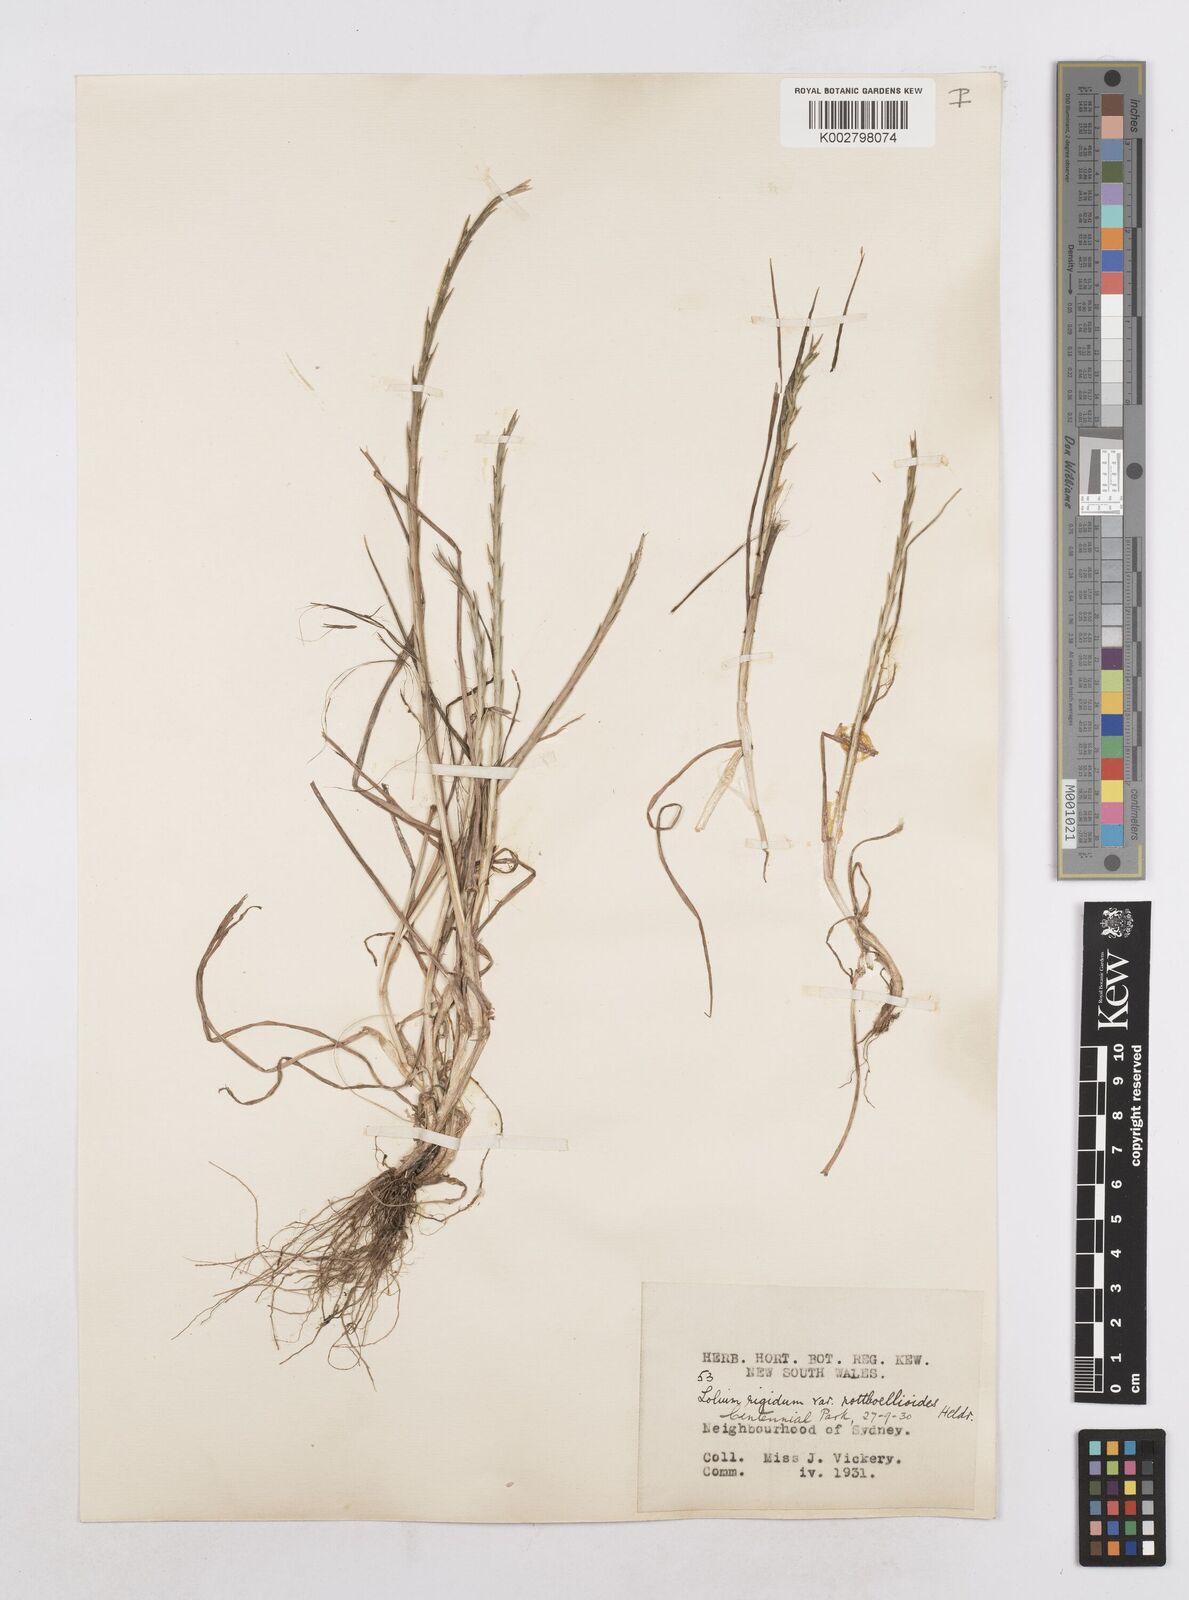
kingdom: Plantae
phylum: Tracheophyta
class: Liliopsida
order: Poales
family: Poaceae
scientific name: Poaceae
